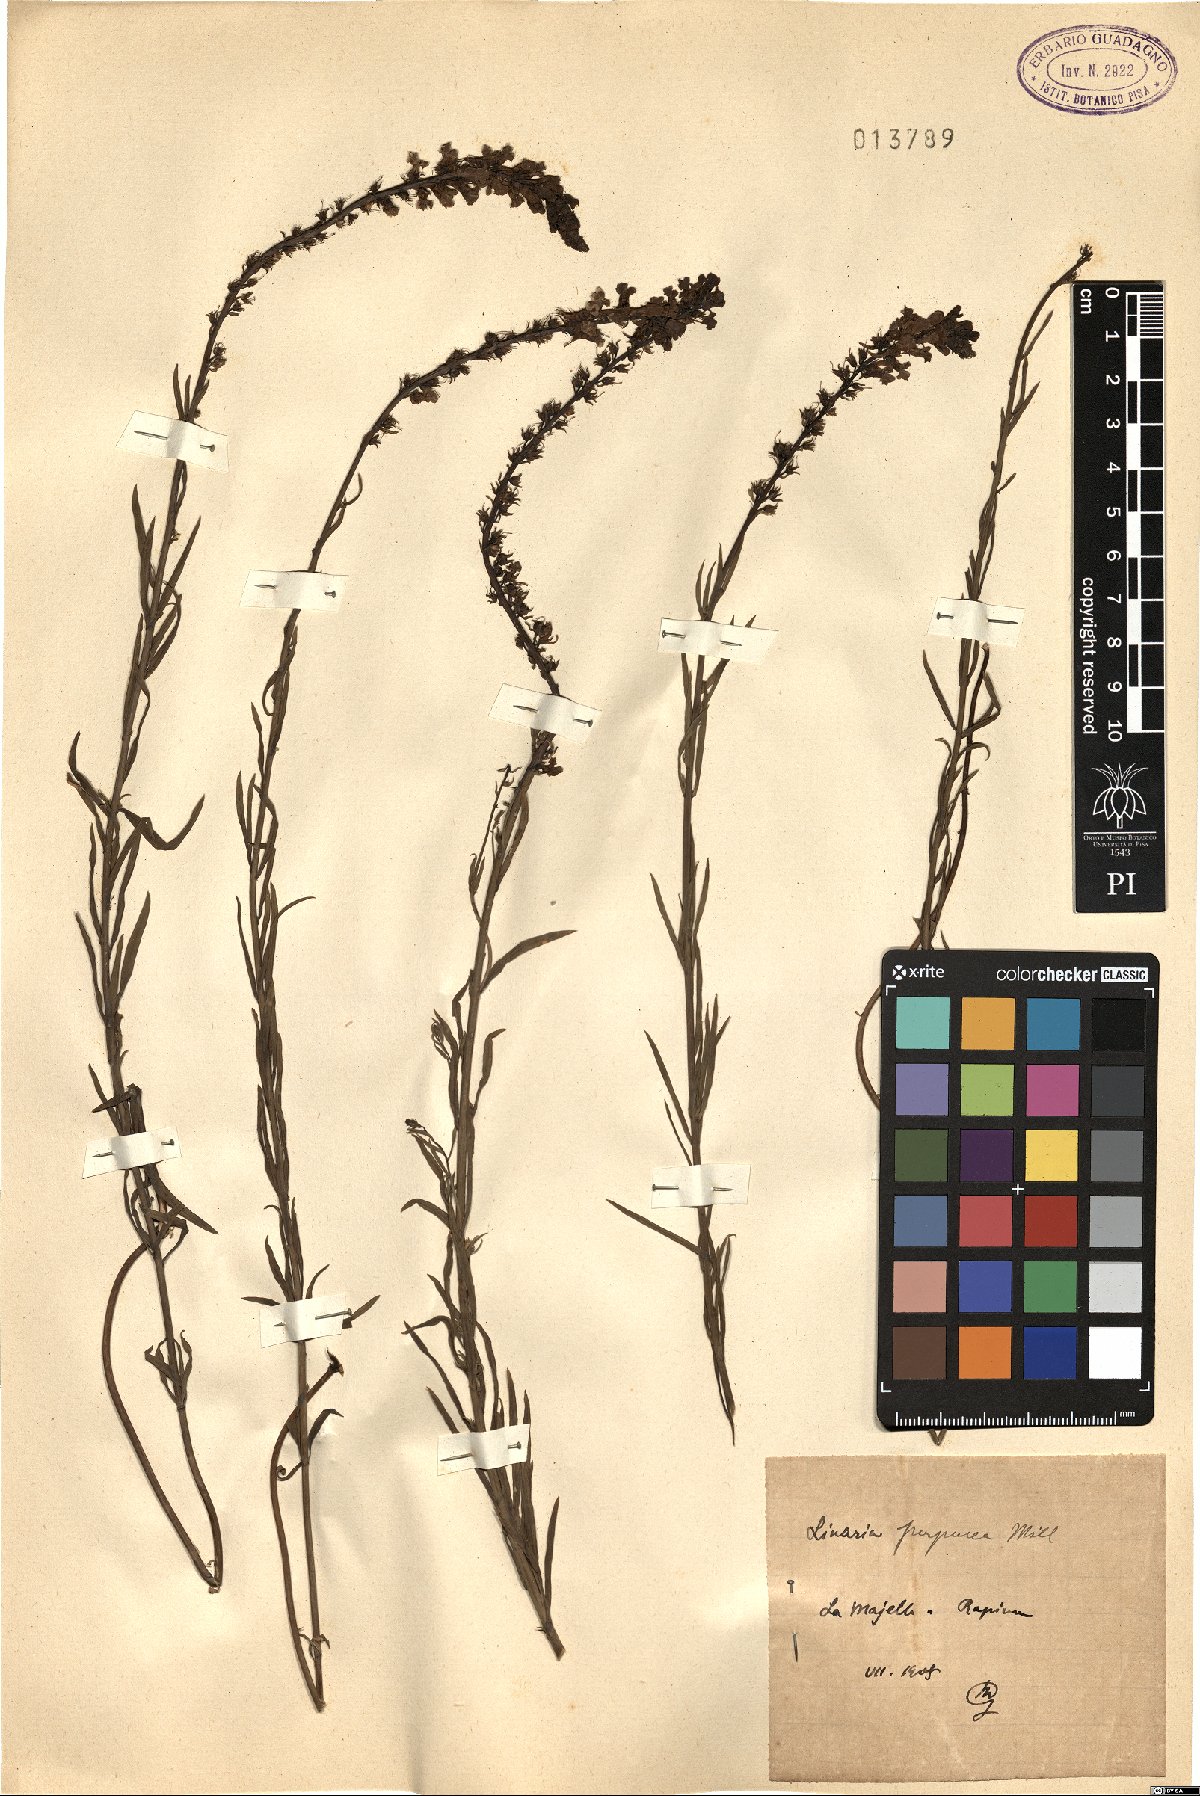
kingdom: Plantae
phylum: Tracheophyta
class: Magnoliopsida
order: Lamiales
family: Plantaginaceae
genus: Linaria
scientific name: Linaria purpurea
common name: Purple toadflax
